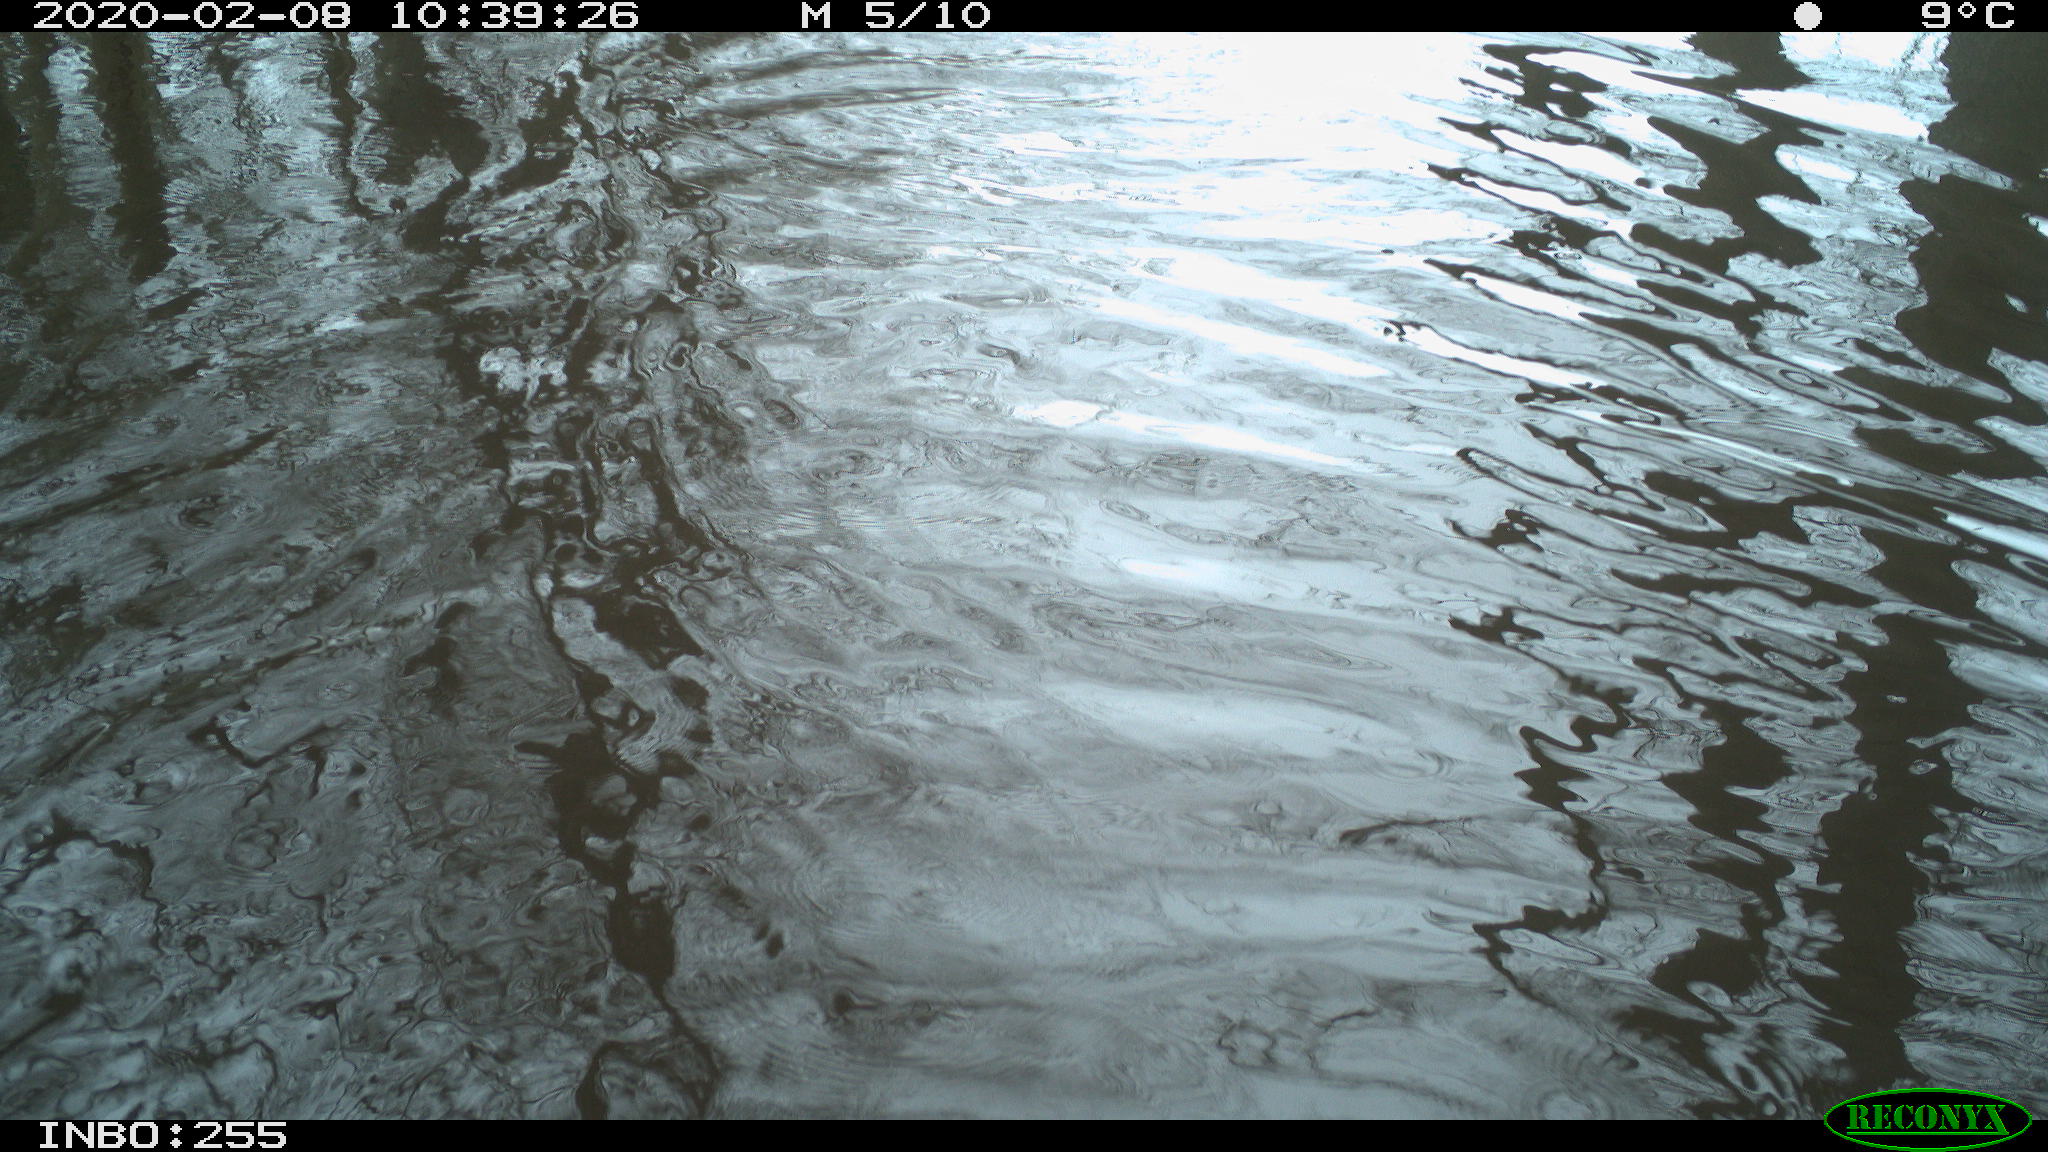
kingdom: Animalia
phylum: Chordata
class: Aves
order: Gruiformes
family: Rallidae
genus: Gallinula
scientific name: Gallinula chloropus
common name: Common moorhen
